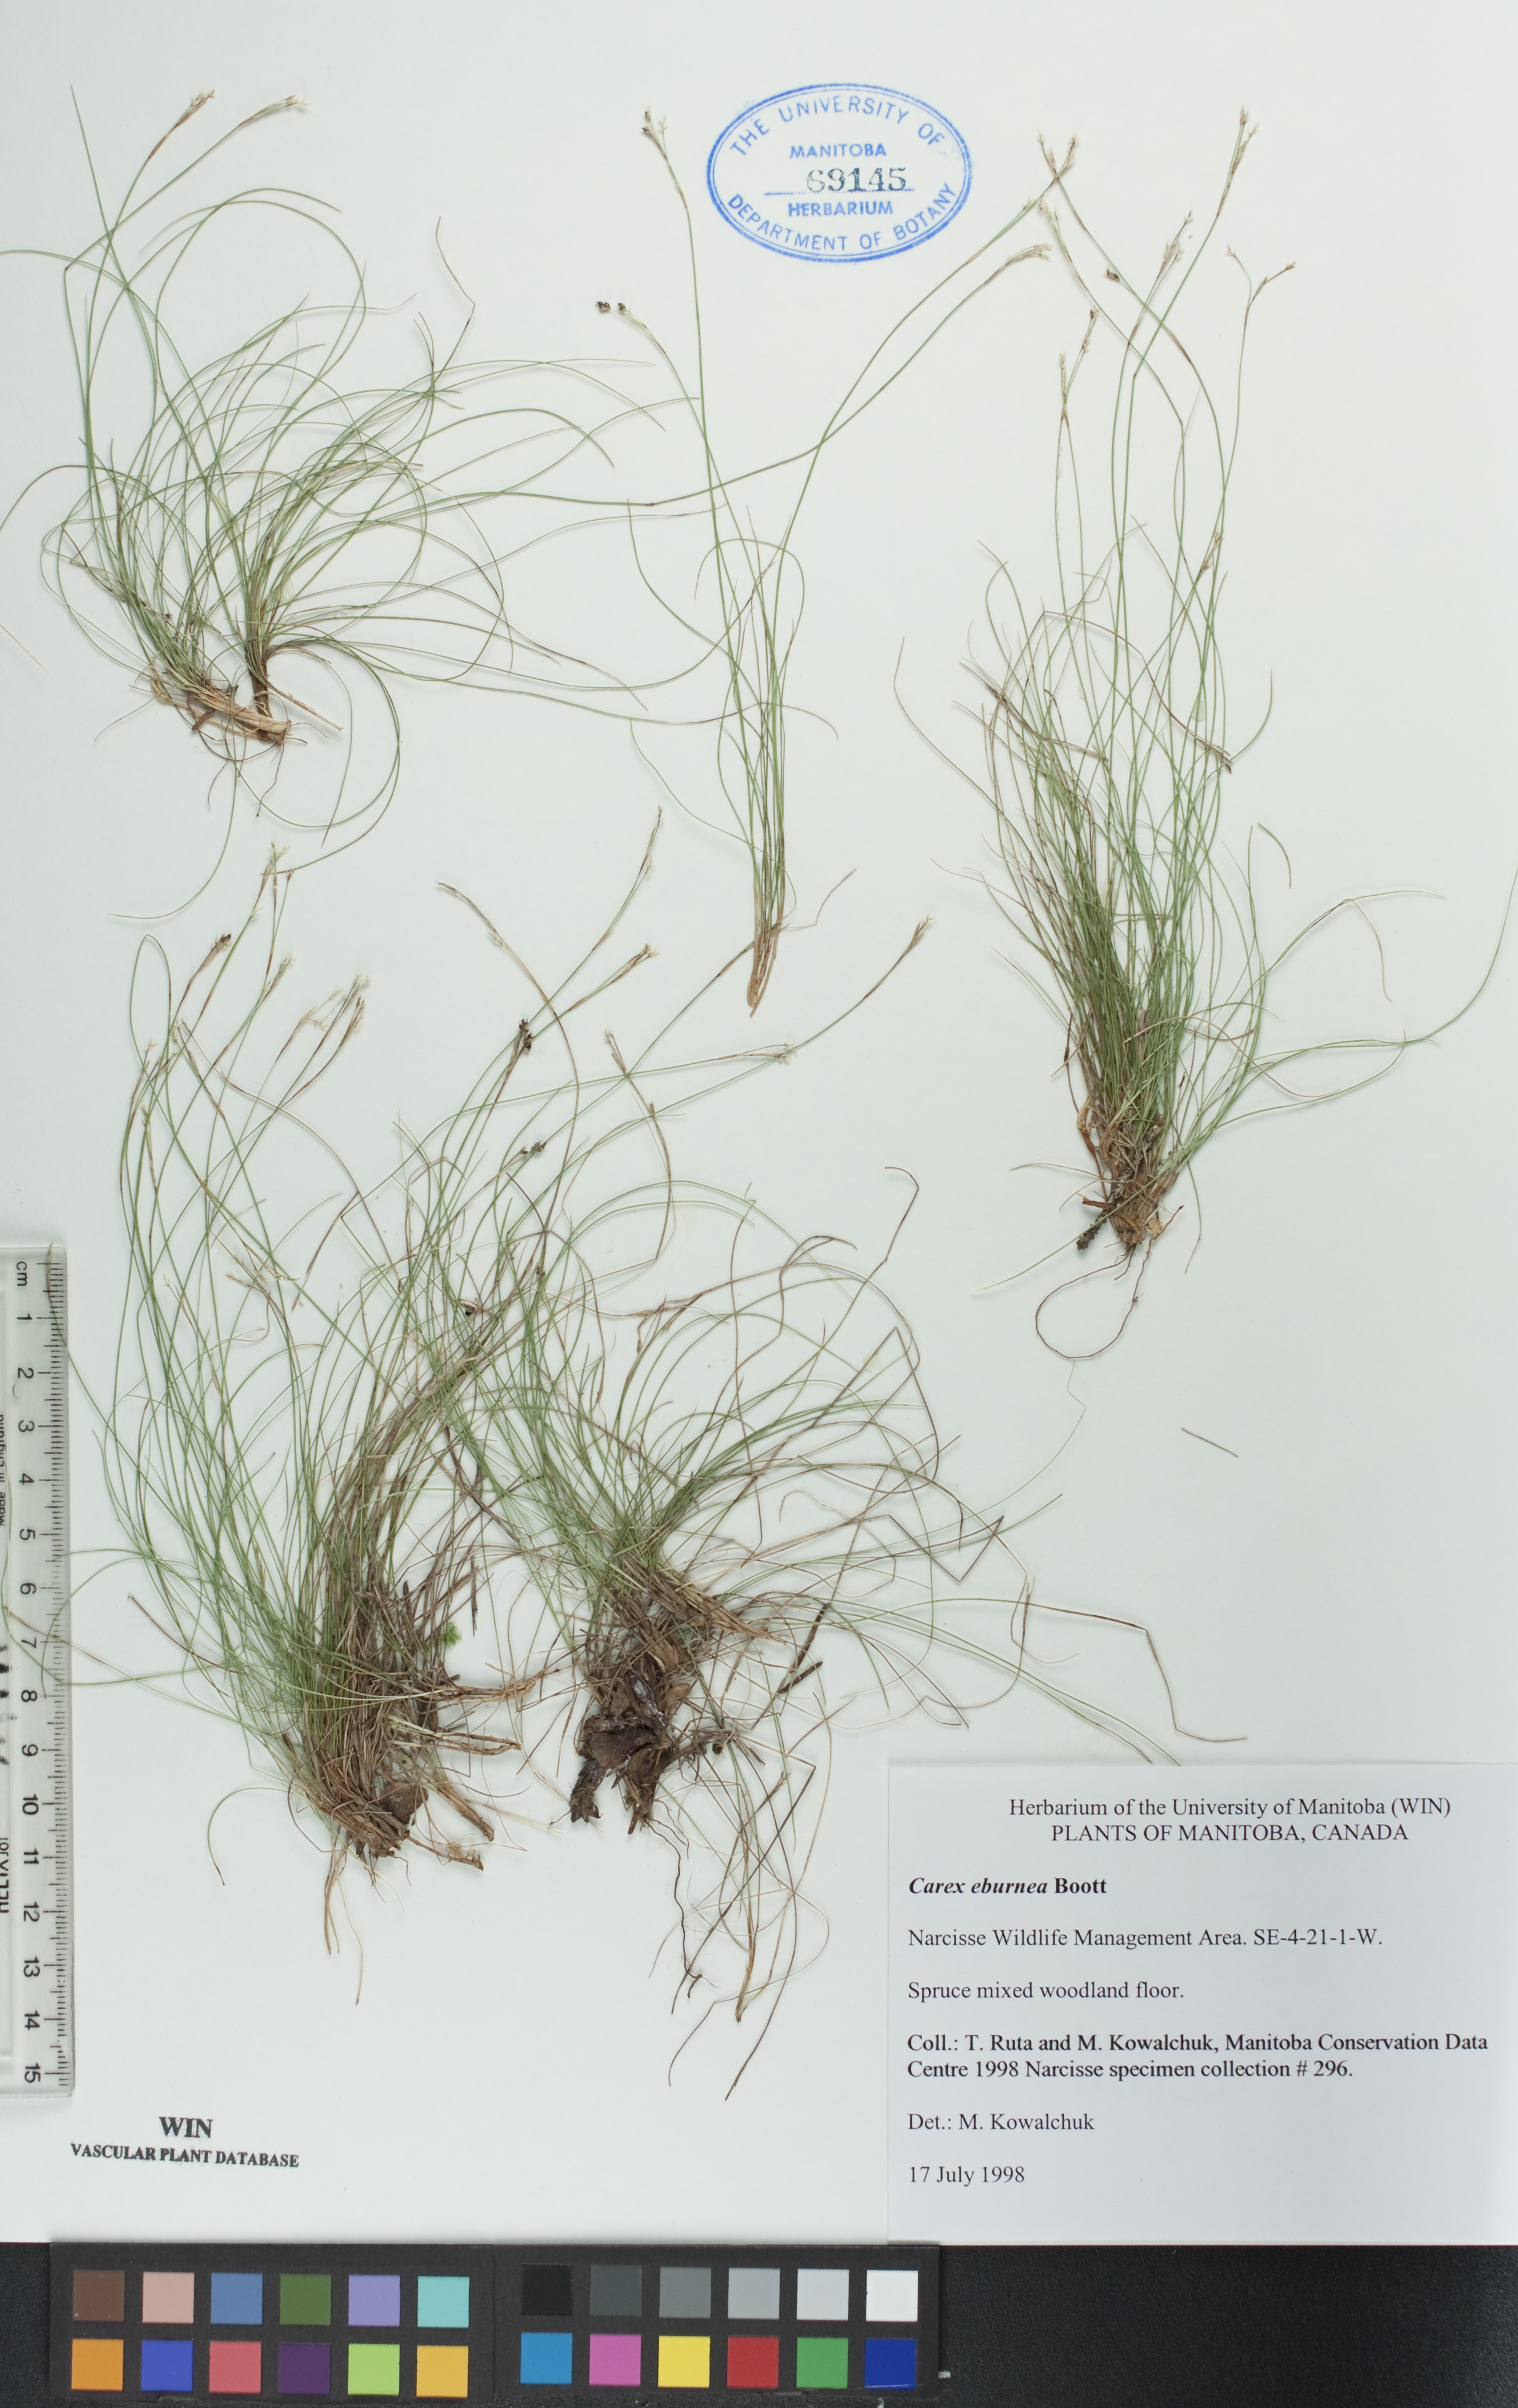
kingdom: Plantae
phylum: Tracheophyta
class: Liliopsida
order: Poales
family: Cyperaceae
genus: Carex
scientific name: Carex eburnea
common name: Bristle-leaved sedge
